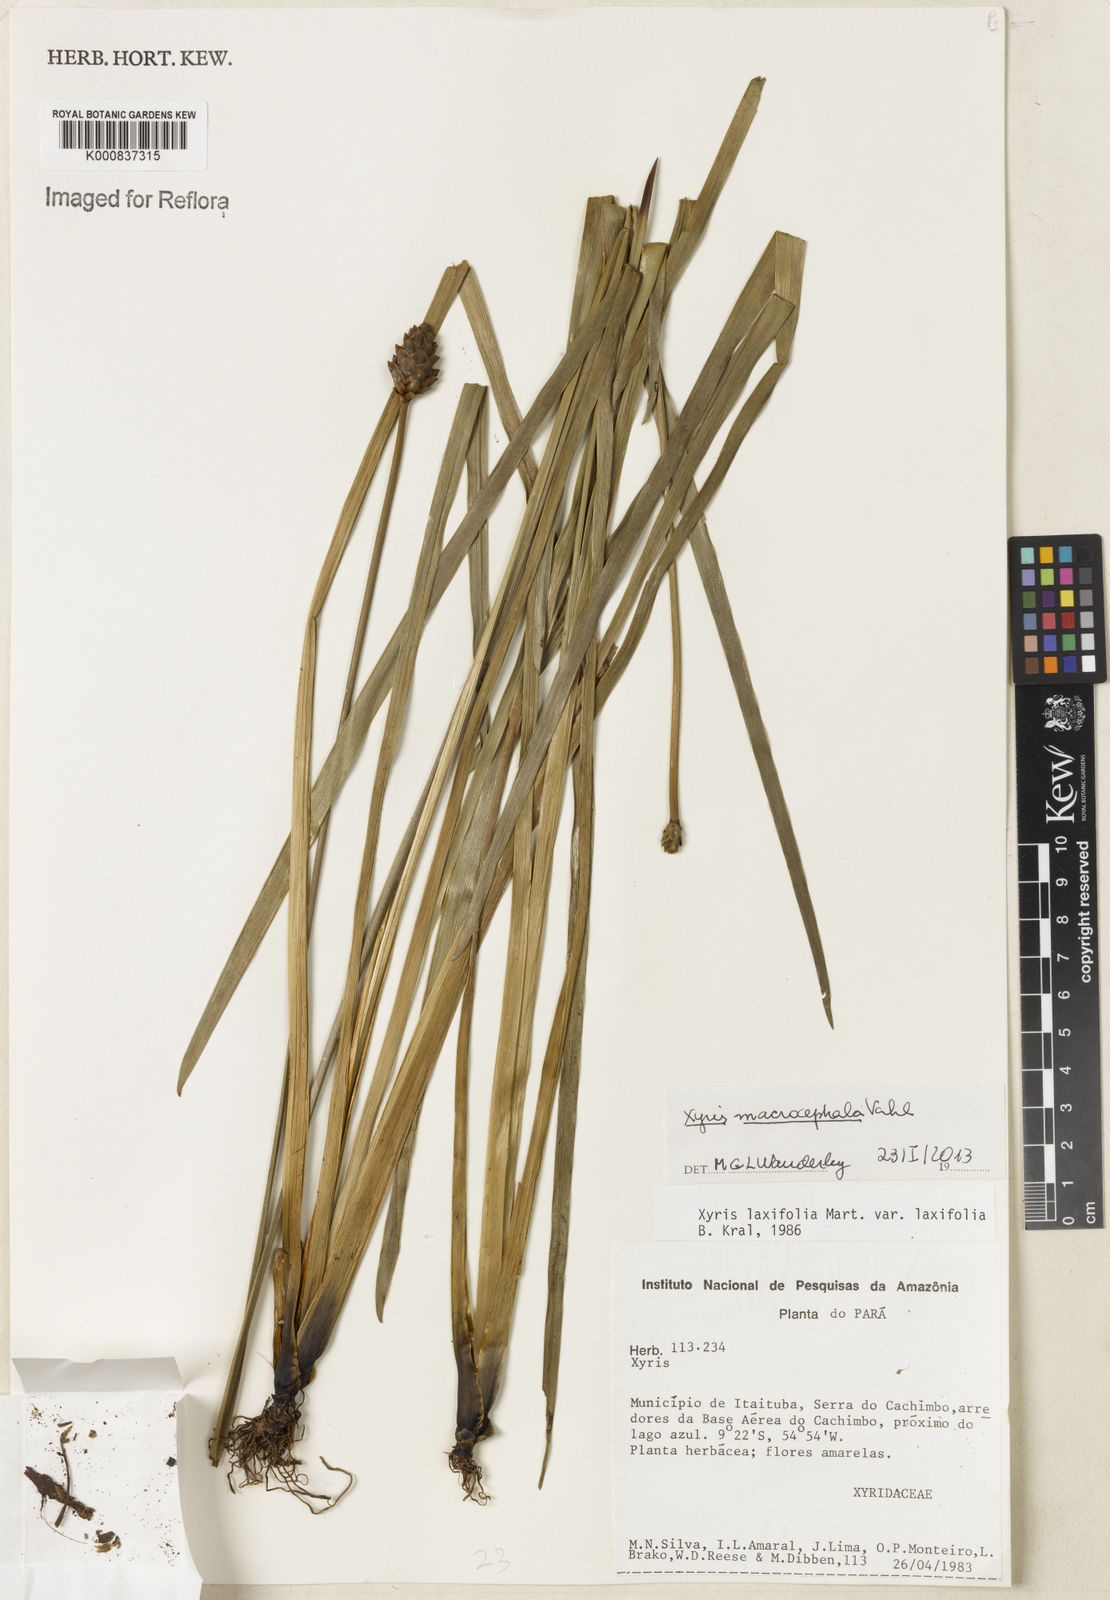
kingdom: Plantae
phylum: Tracheophyta
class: Liliopsida
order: Poales
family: Xyridaceae
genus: Xyris
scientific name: Xyris jupicai
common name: Richard's yelloweyed grass
